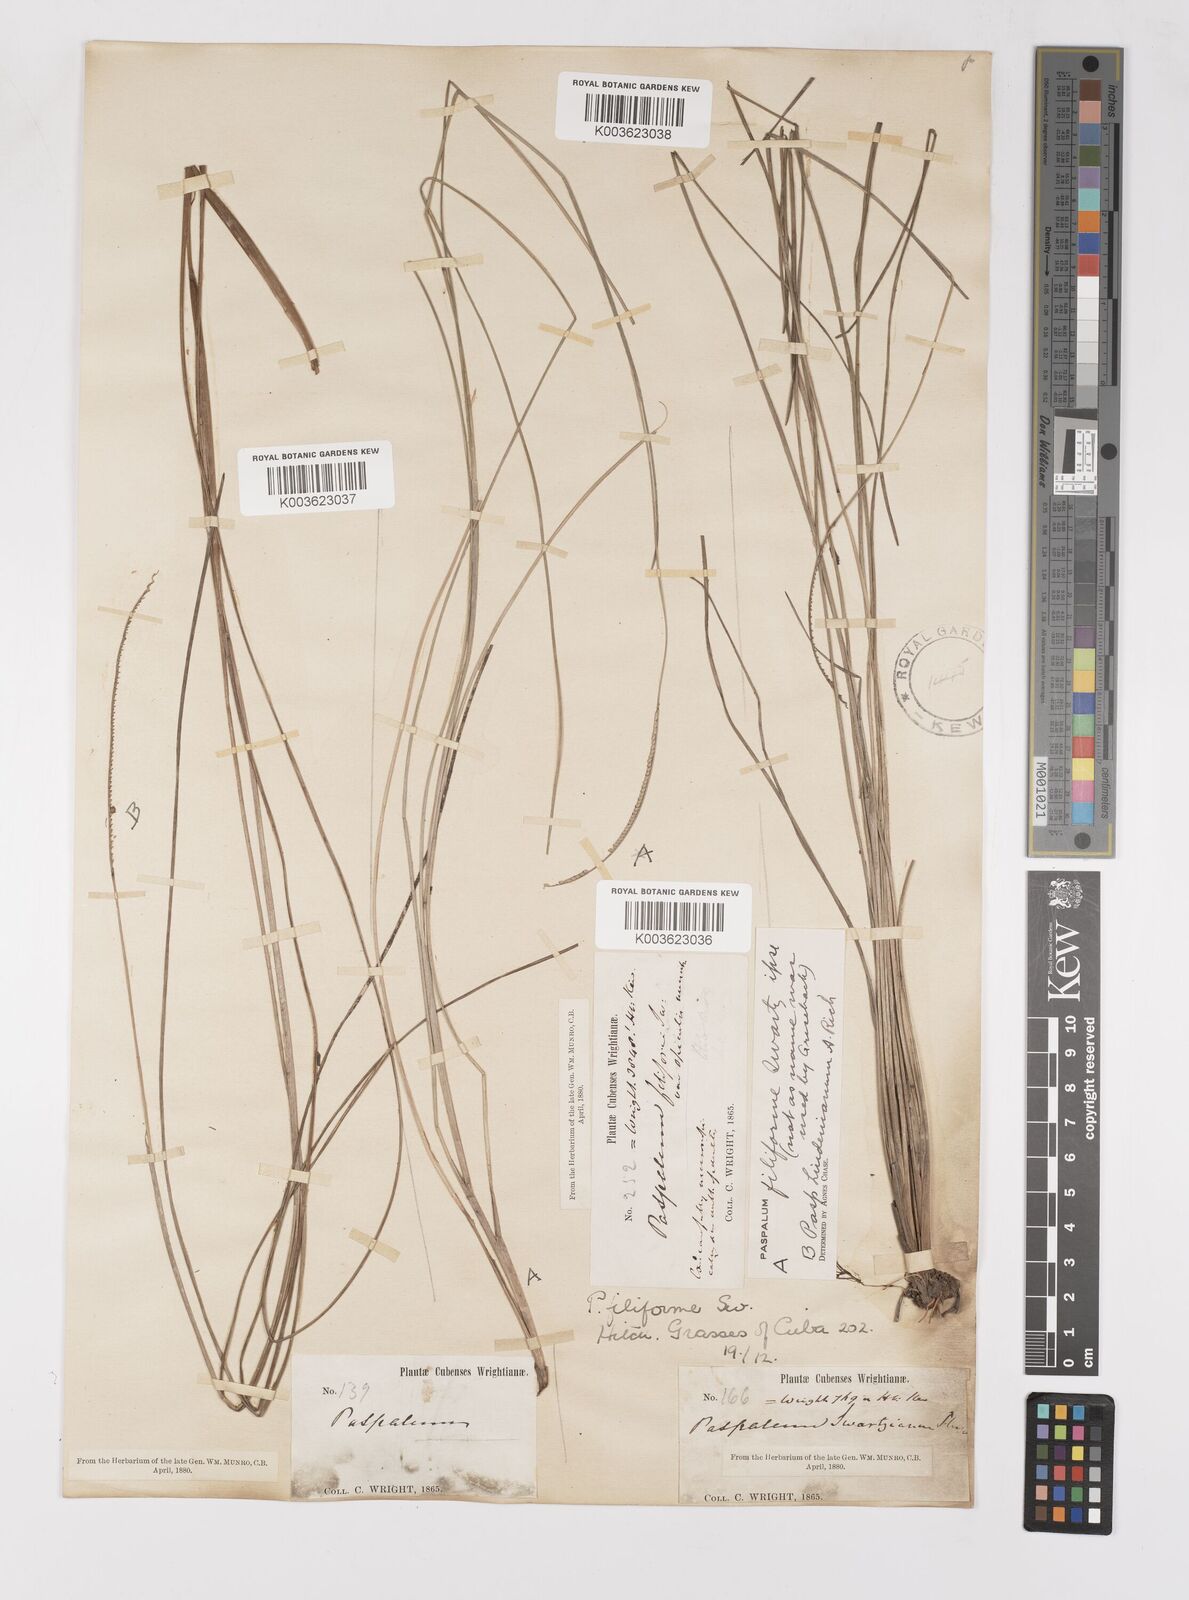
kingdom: Plantae
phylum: Tracheophyta
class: Liliopsida
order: Poales
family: Poaceae
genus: Paspalum
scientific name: Paspalum filiforme
